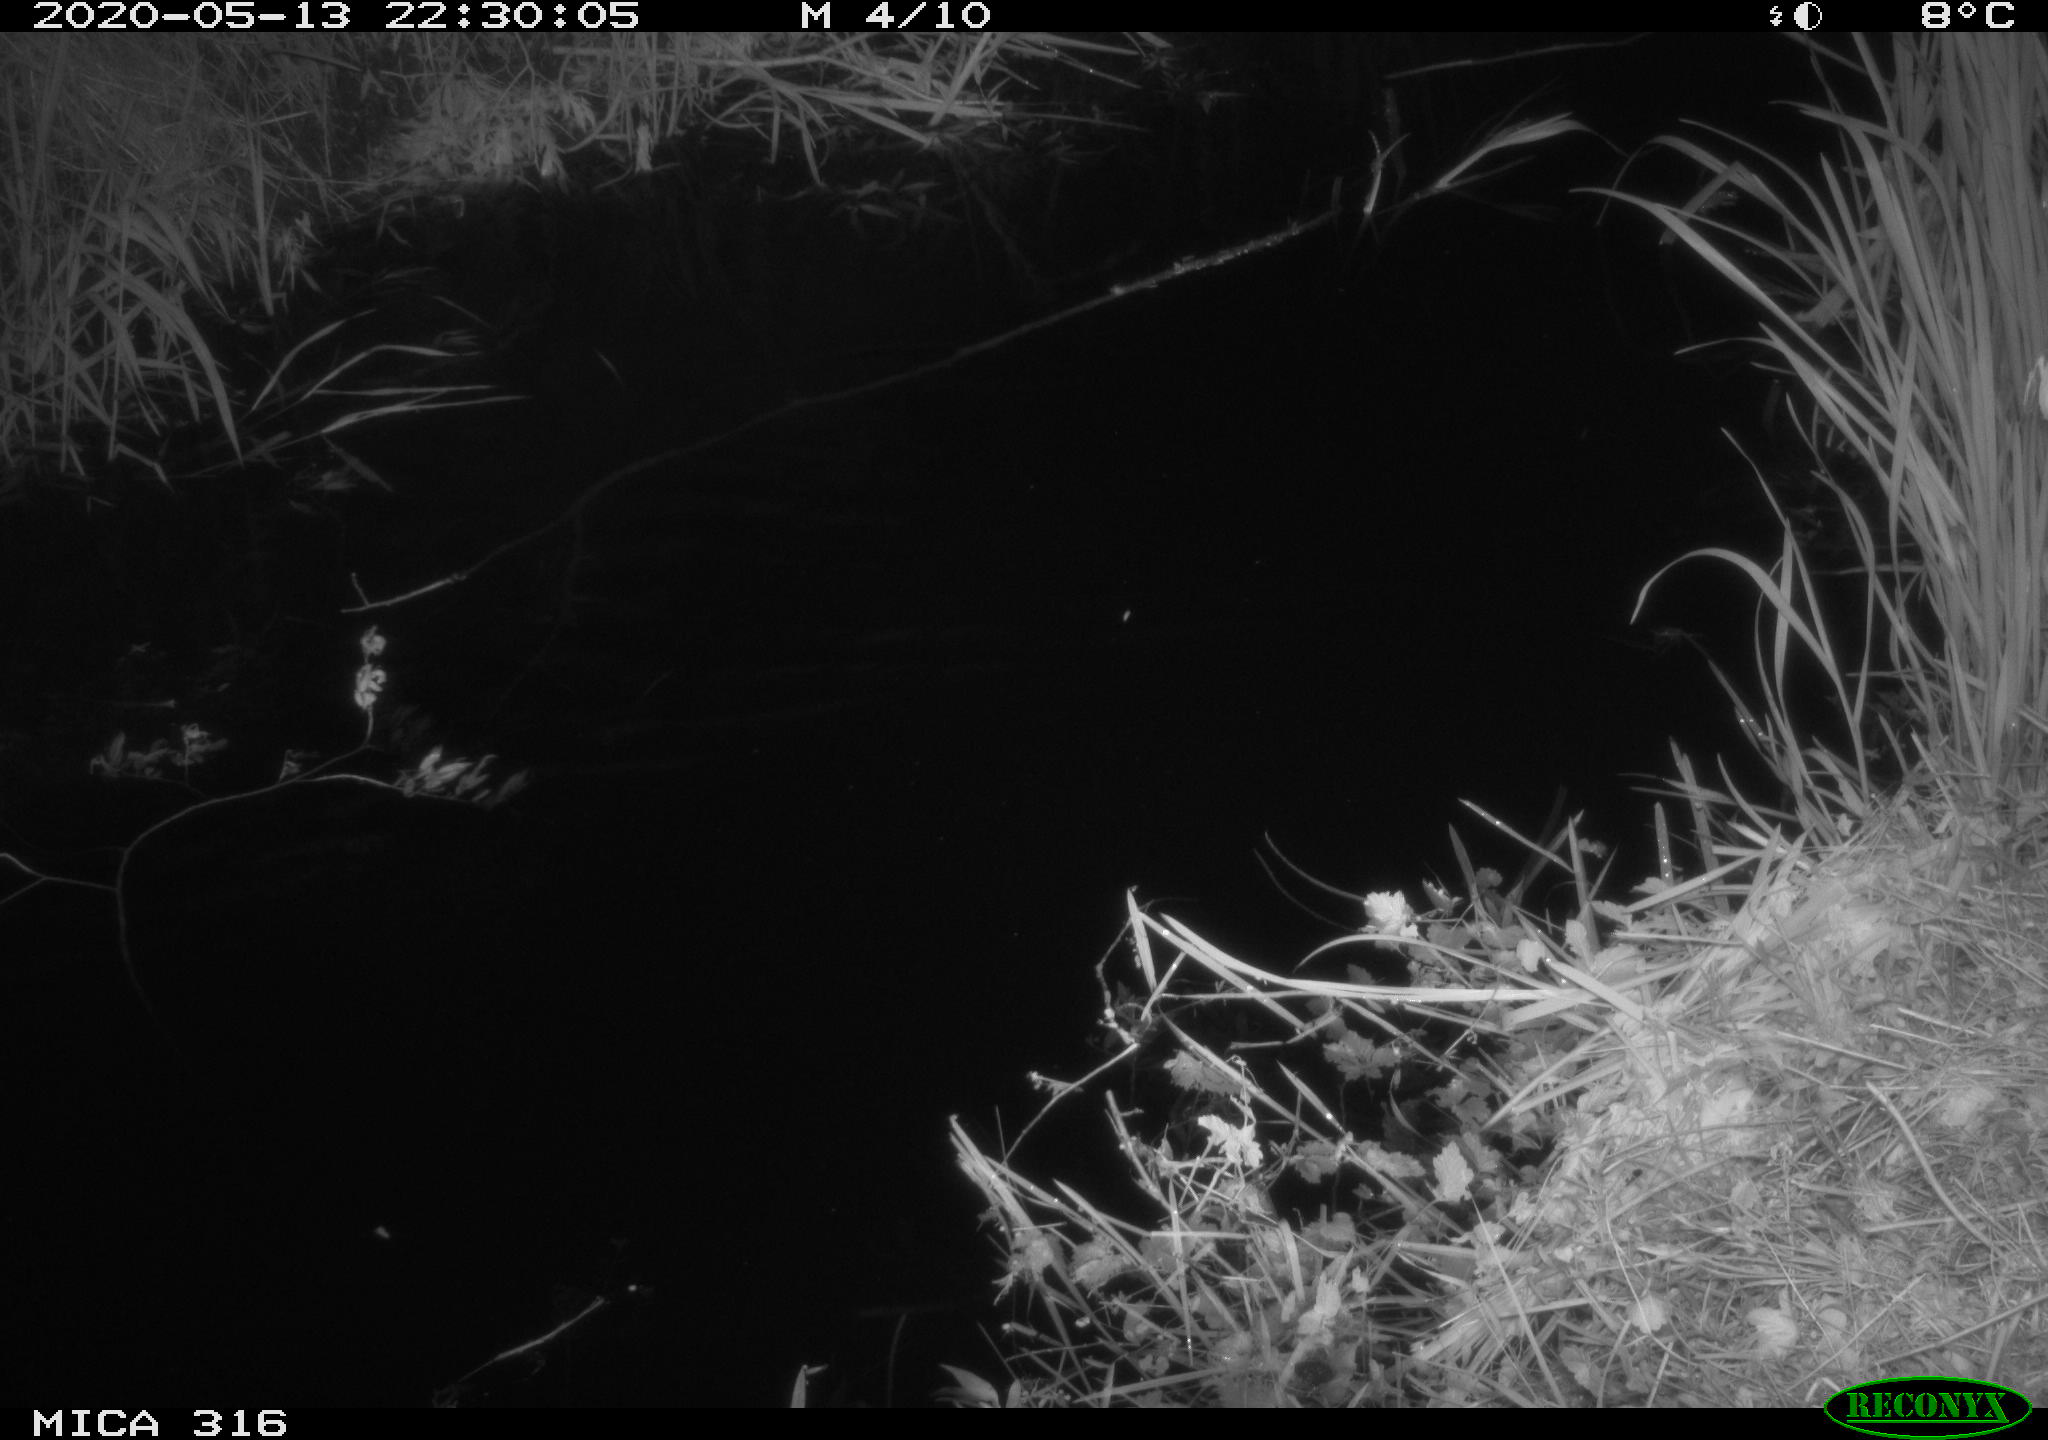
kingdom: Animalia
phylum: Chordata
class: Aves
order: Anseriformes
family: Anatidae
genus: Anas
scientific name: Anas platyrhynchos
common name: Mallard
